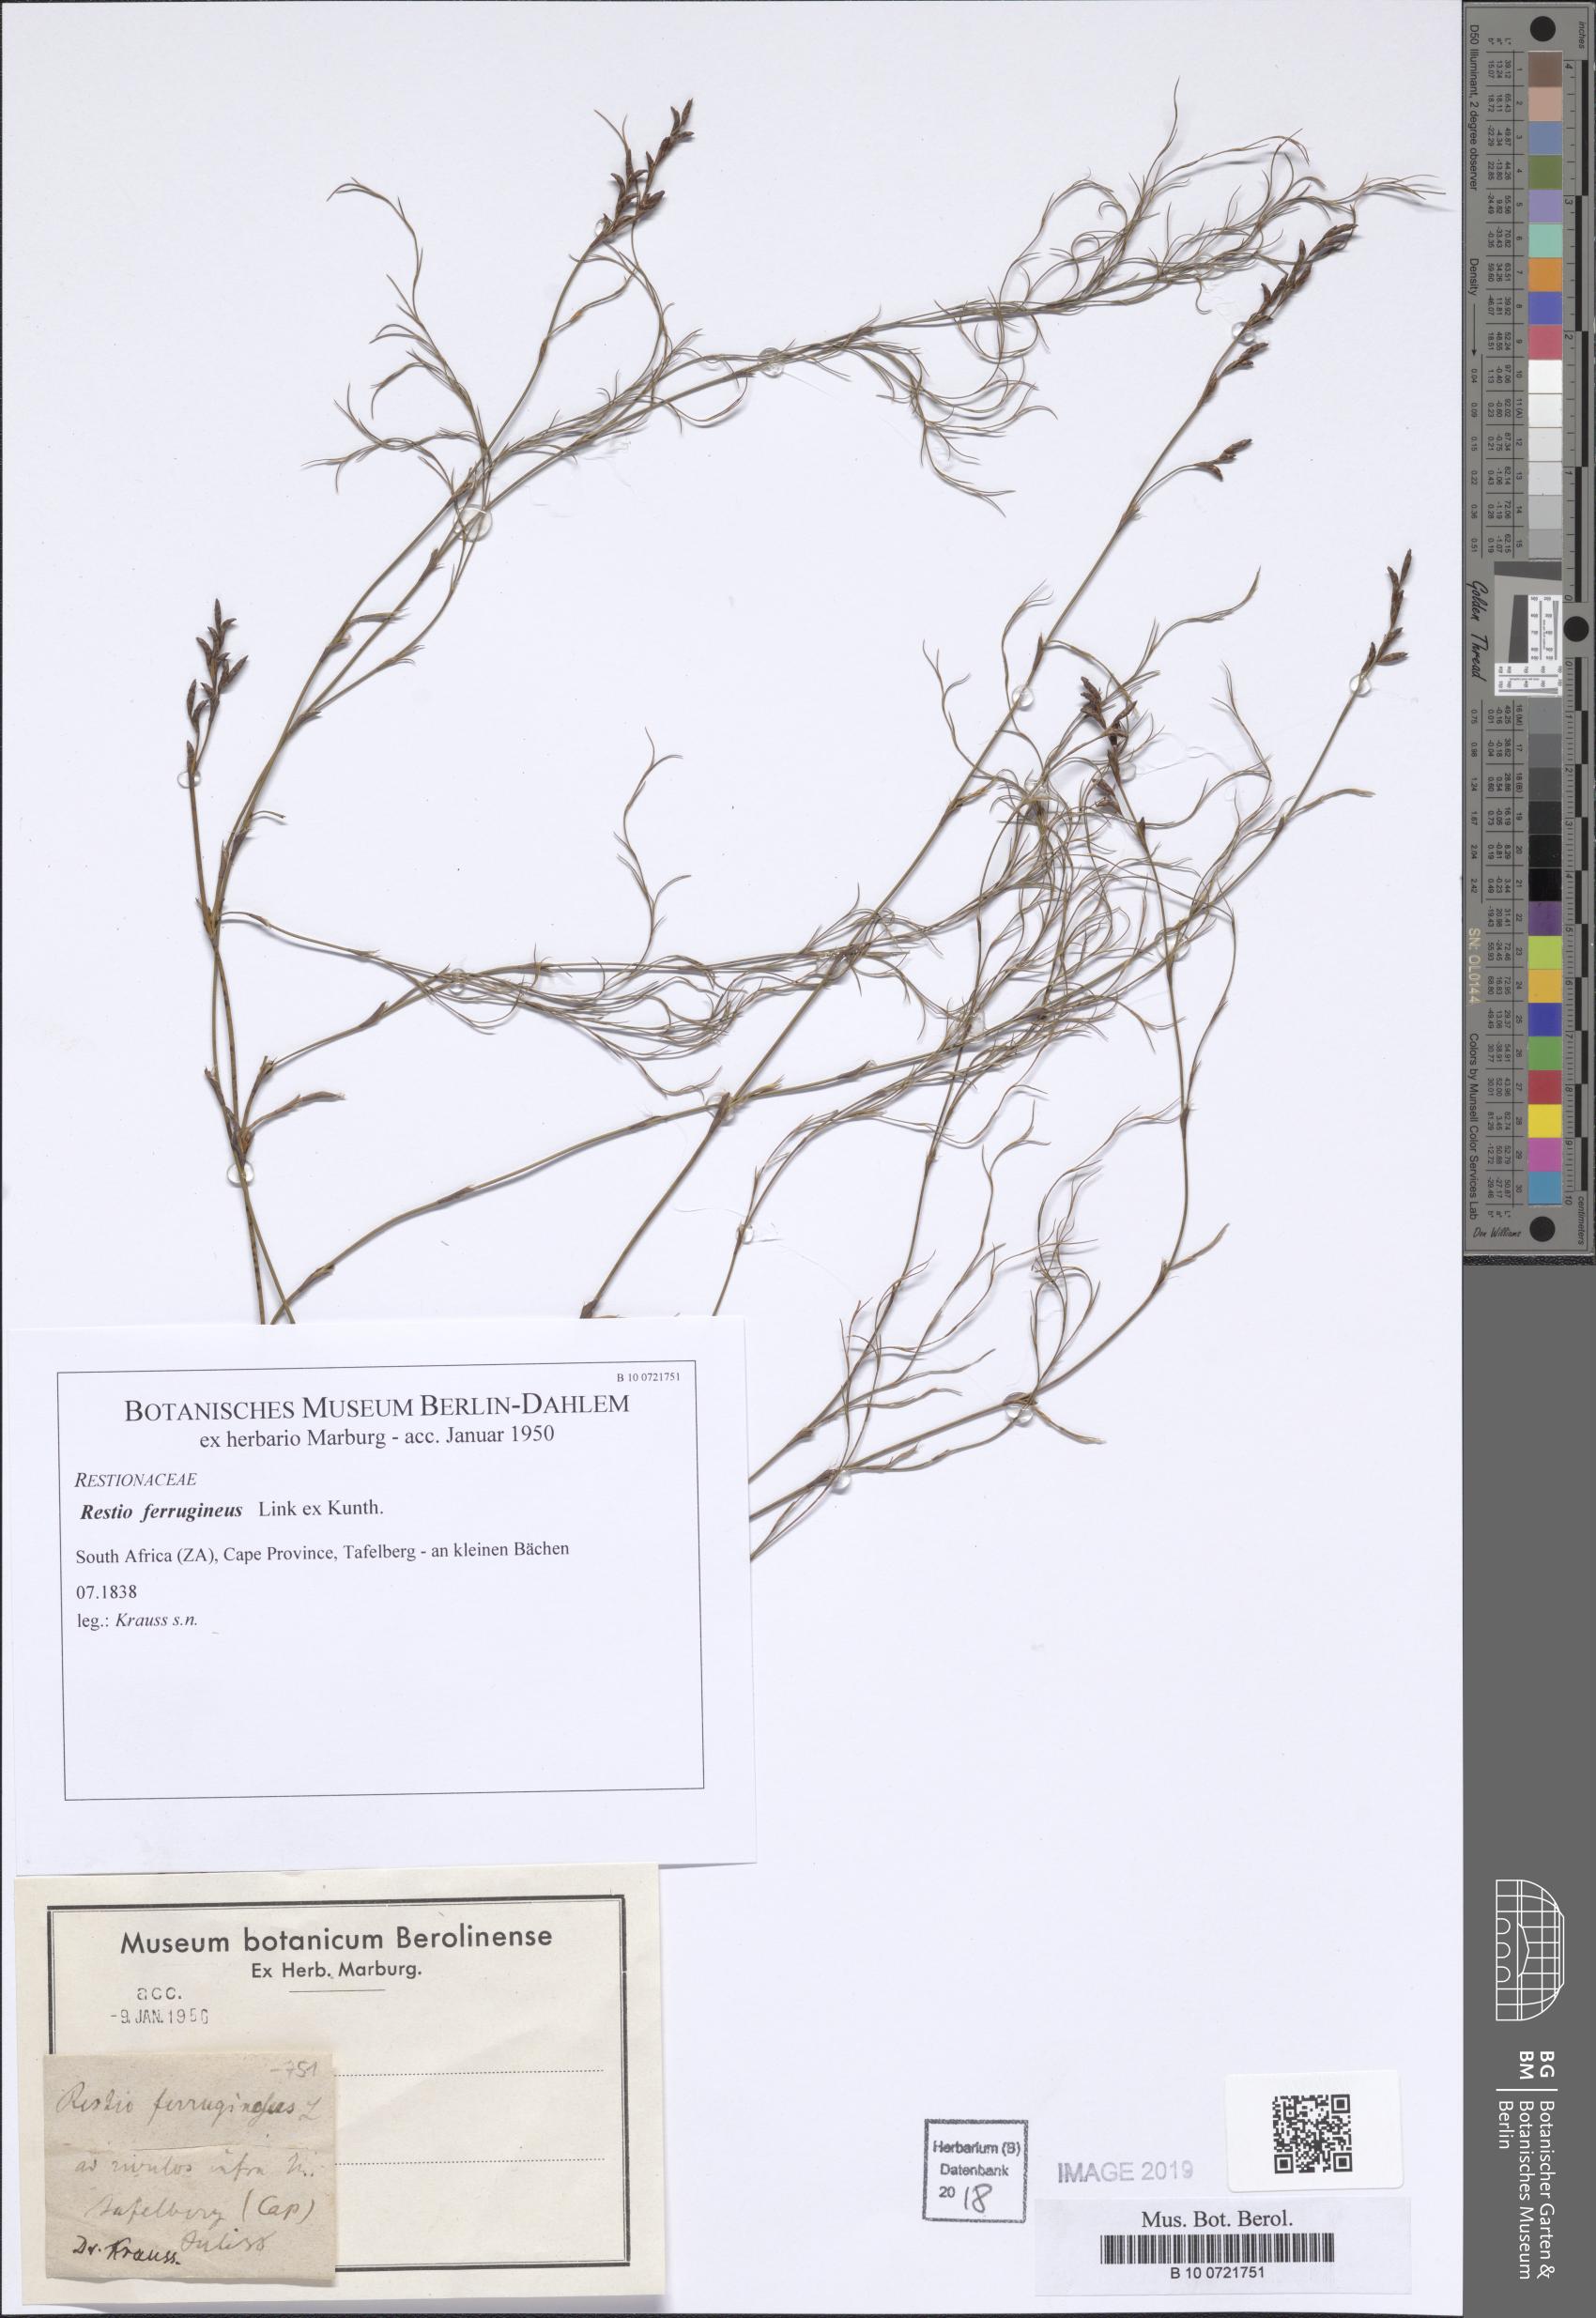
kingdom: Plantae
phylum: Tracheophyta
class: Liliopsida
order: Poales
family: Restionaceae
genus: Restio
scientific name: Restio gaudichaudianus
